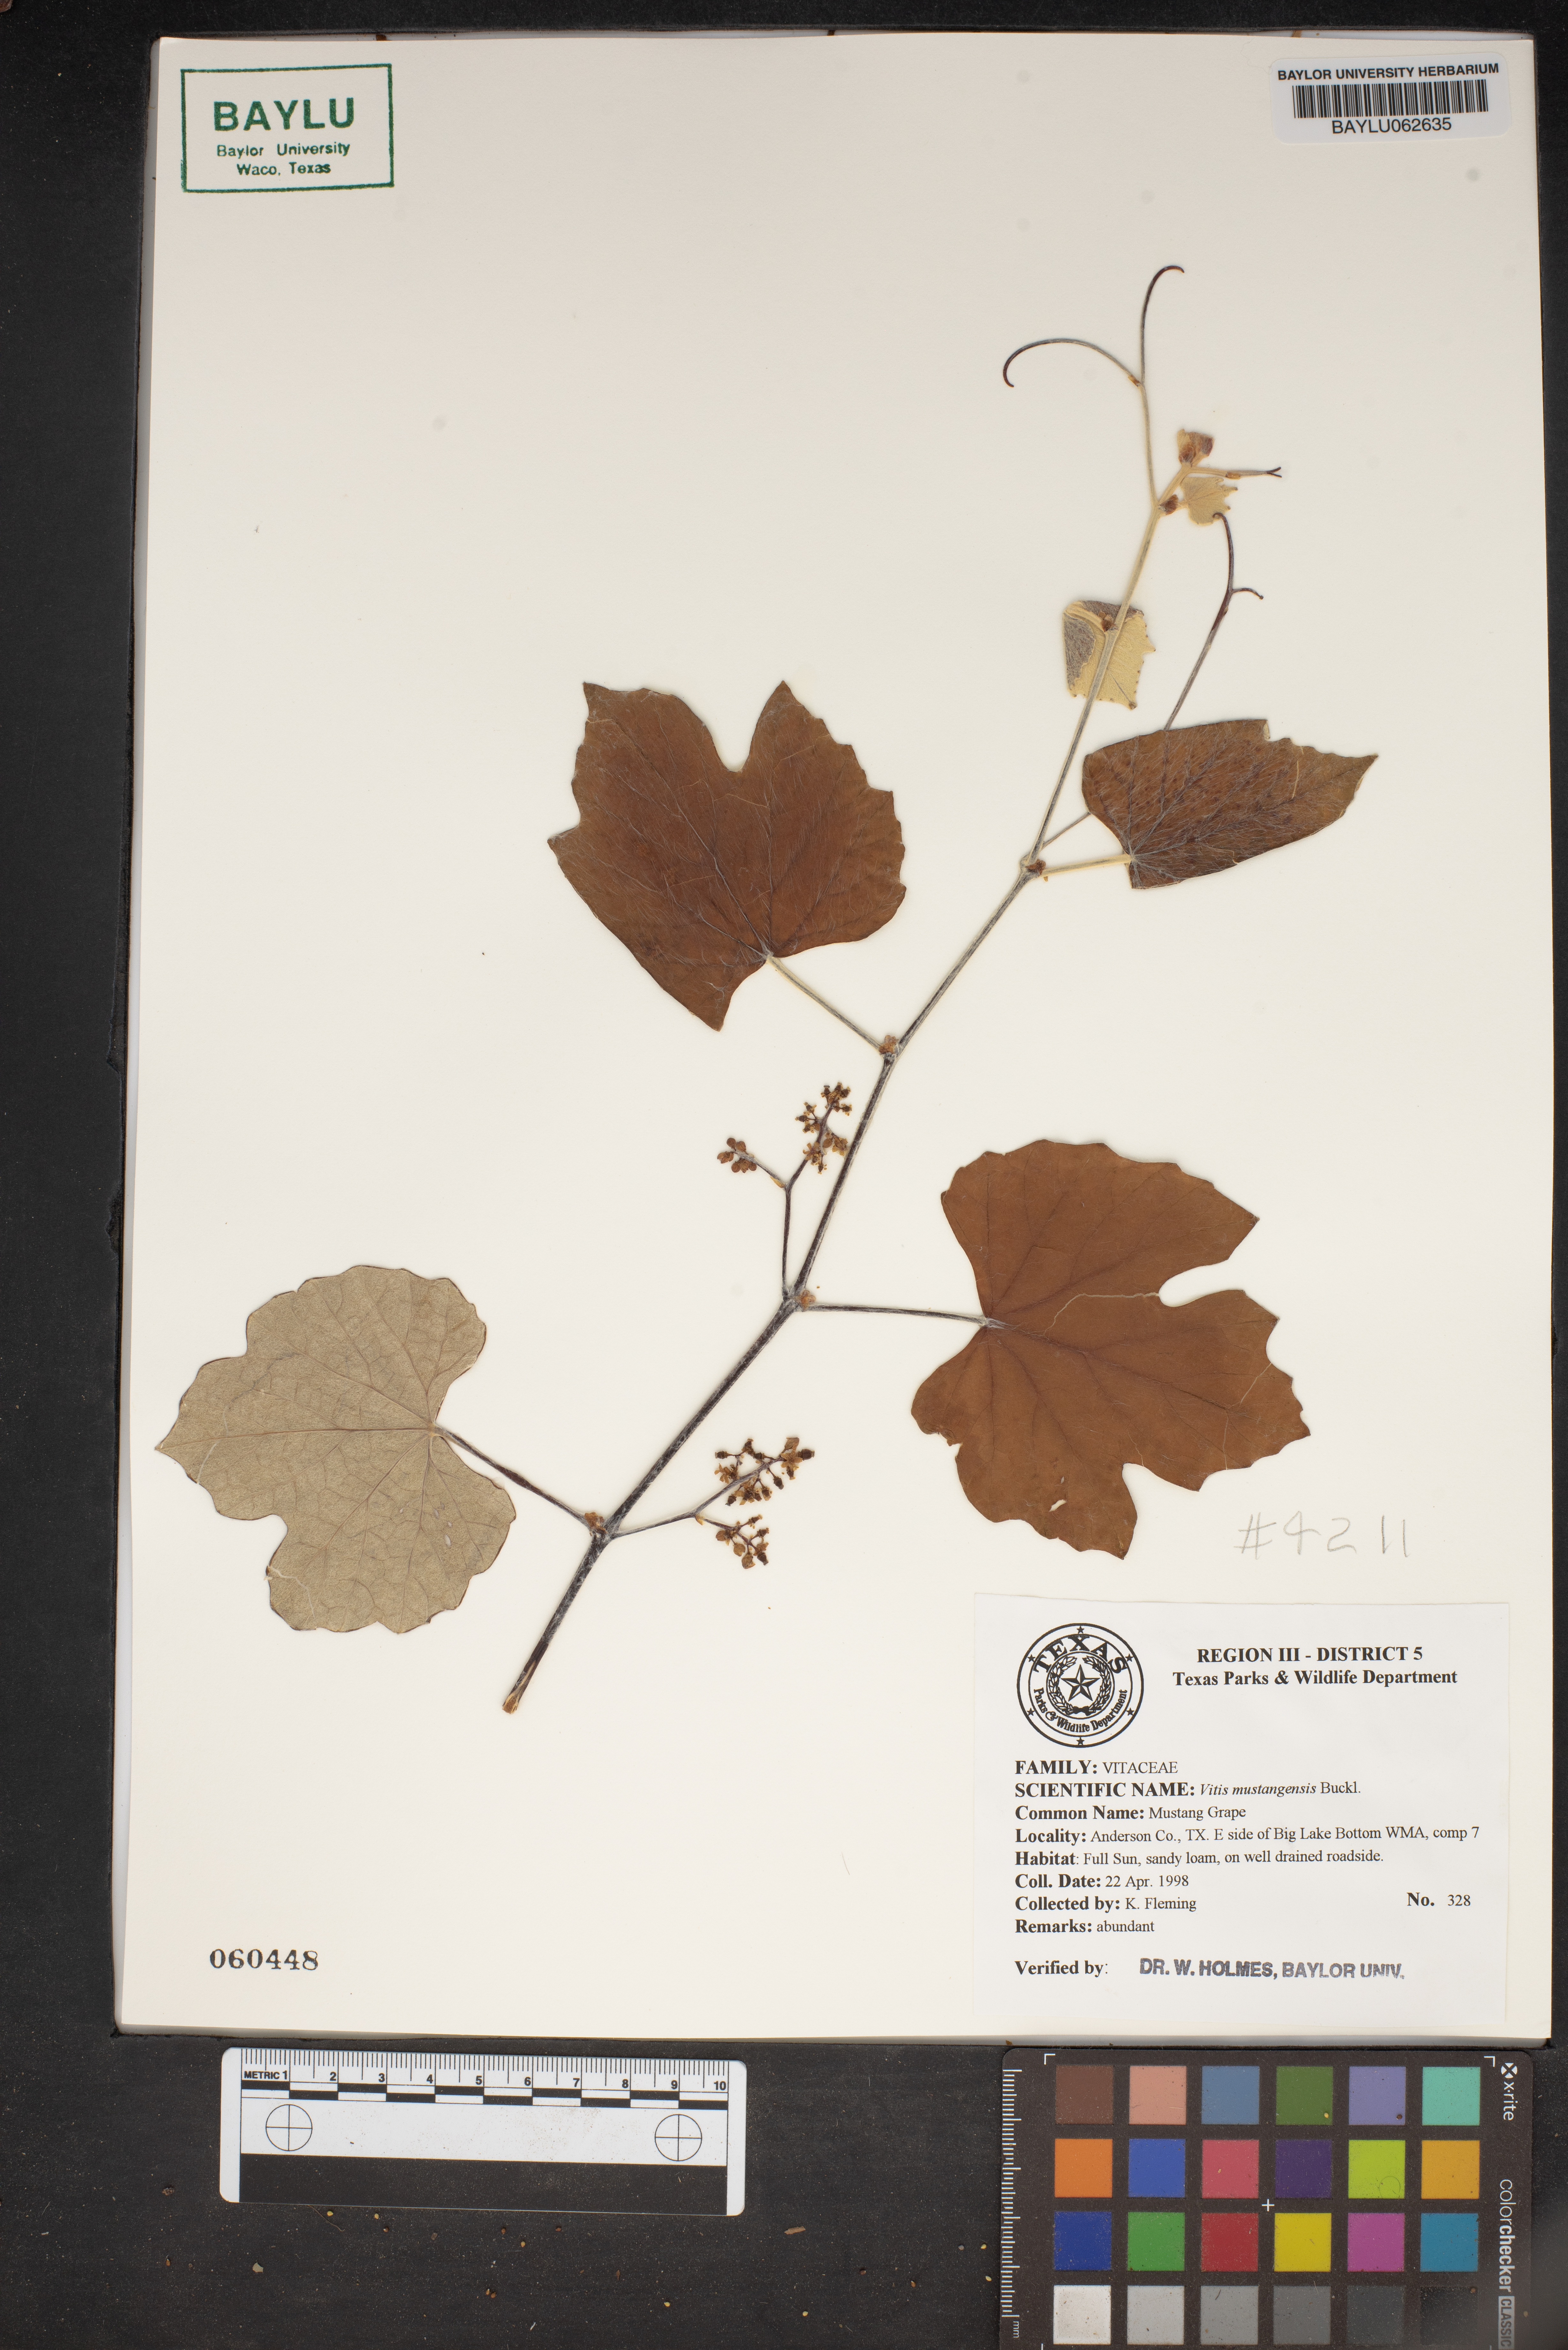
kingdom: Plantae
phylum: Tracheophyta
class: Magnoliopsida
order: Vitales
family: Vitaceae
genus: Vitis
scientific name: Vitis mustangensis
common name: Mustang grape
